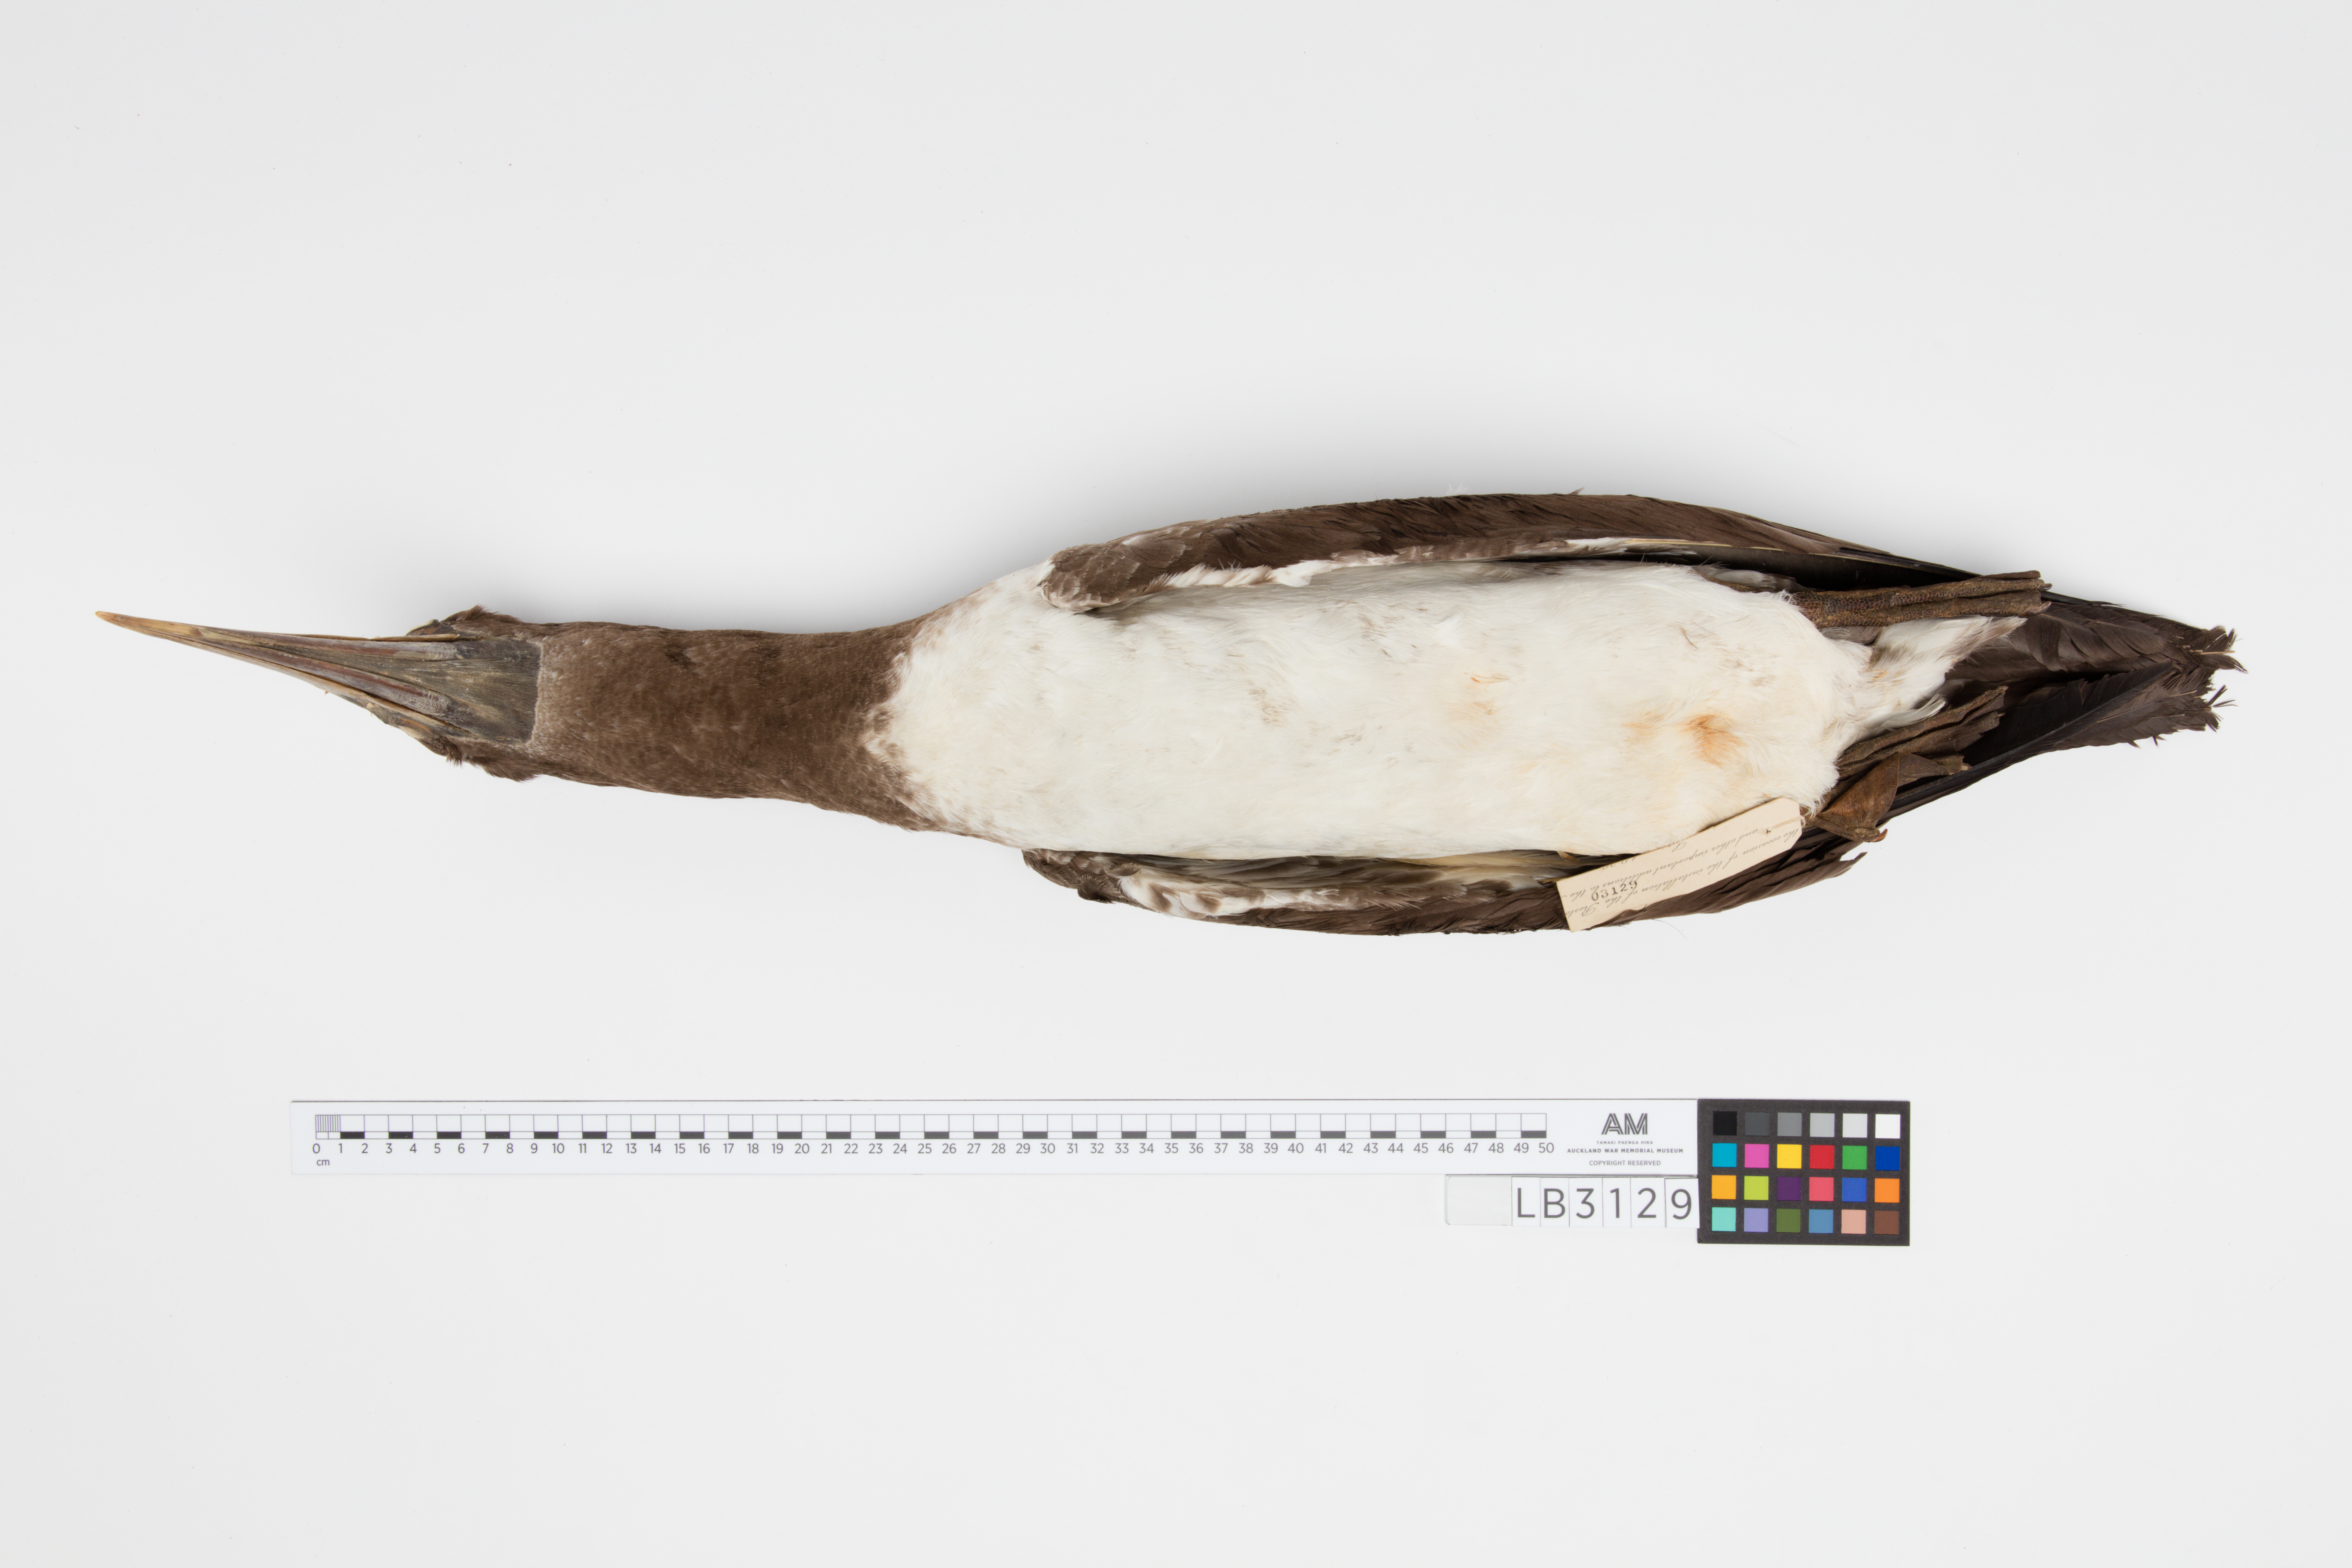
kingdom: Animalia
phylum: Chordata
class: Aves
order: Suliformes
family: Sulidae
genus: Sula
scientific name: Sula leucogaster
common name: Brown booby
